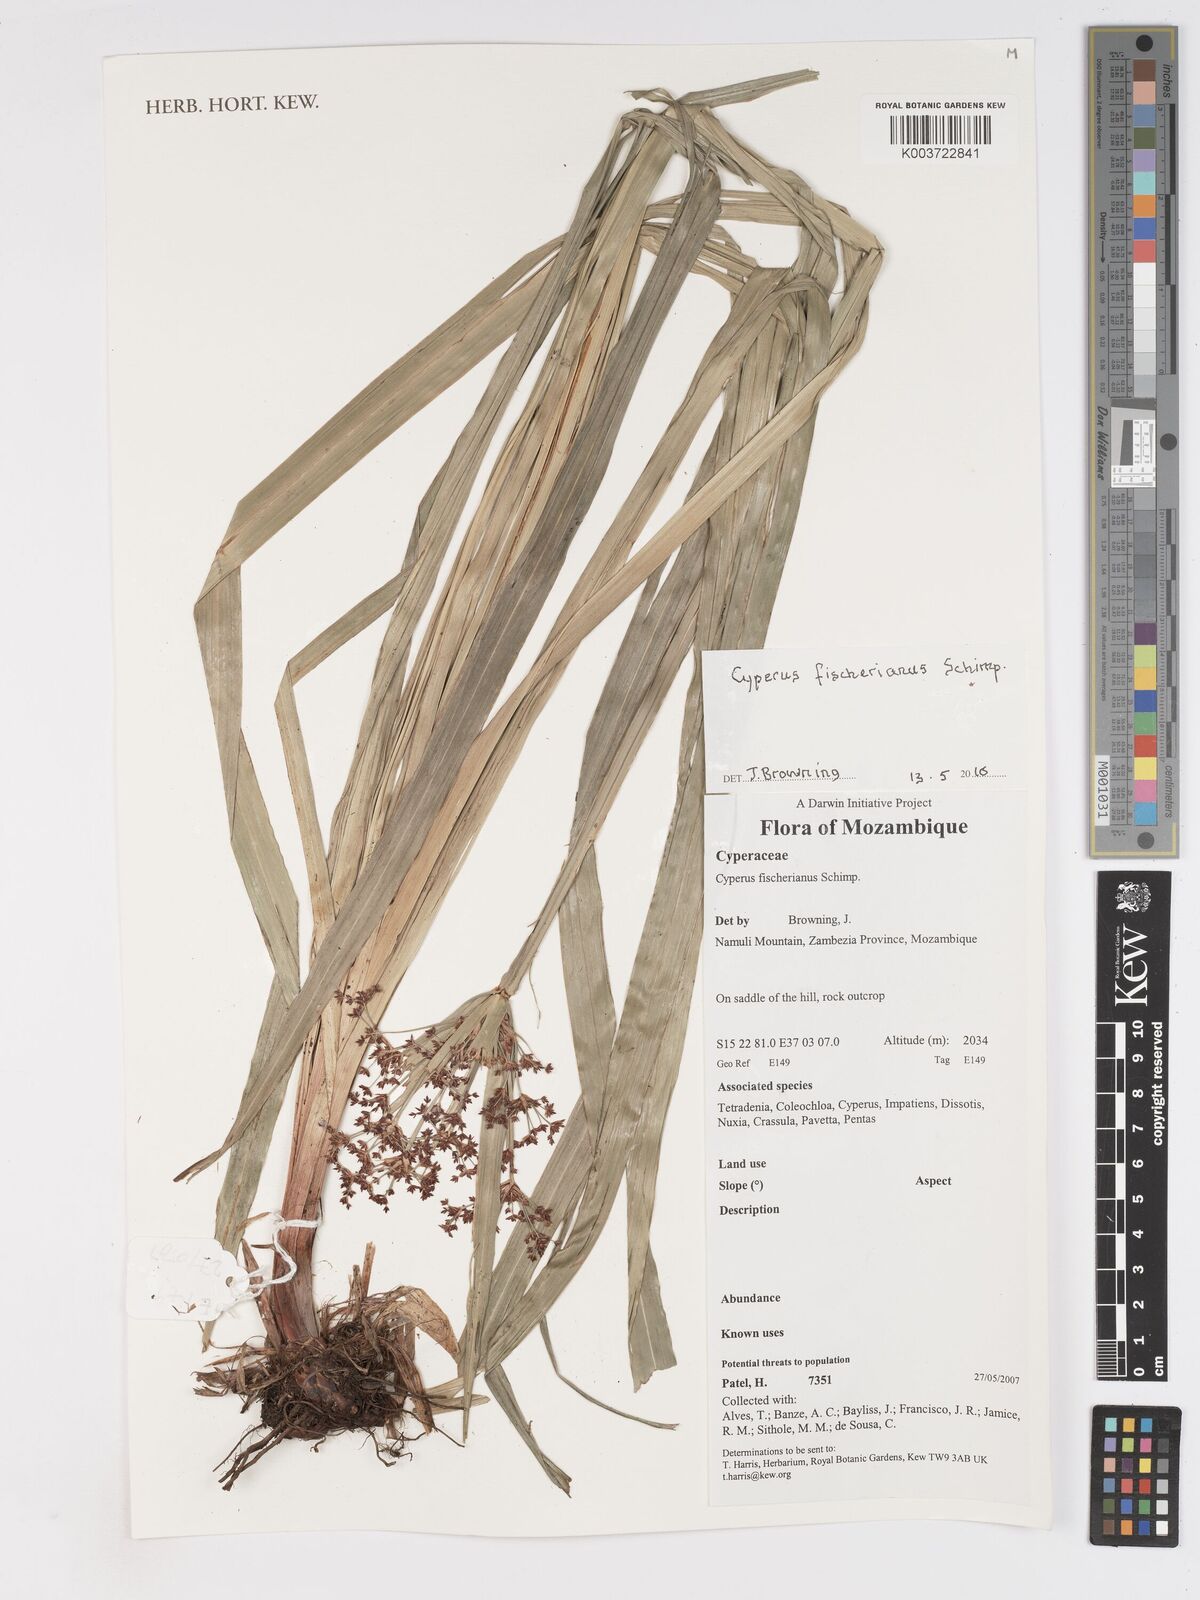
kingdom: Plantae
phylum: Tracheophyta
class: Liliopsida
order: Poales
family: Cyperaceae
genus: Cyperus
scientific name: Cyperus fischerianus
